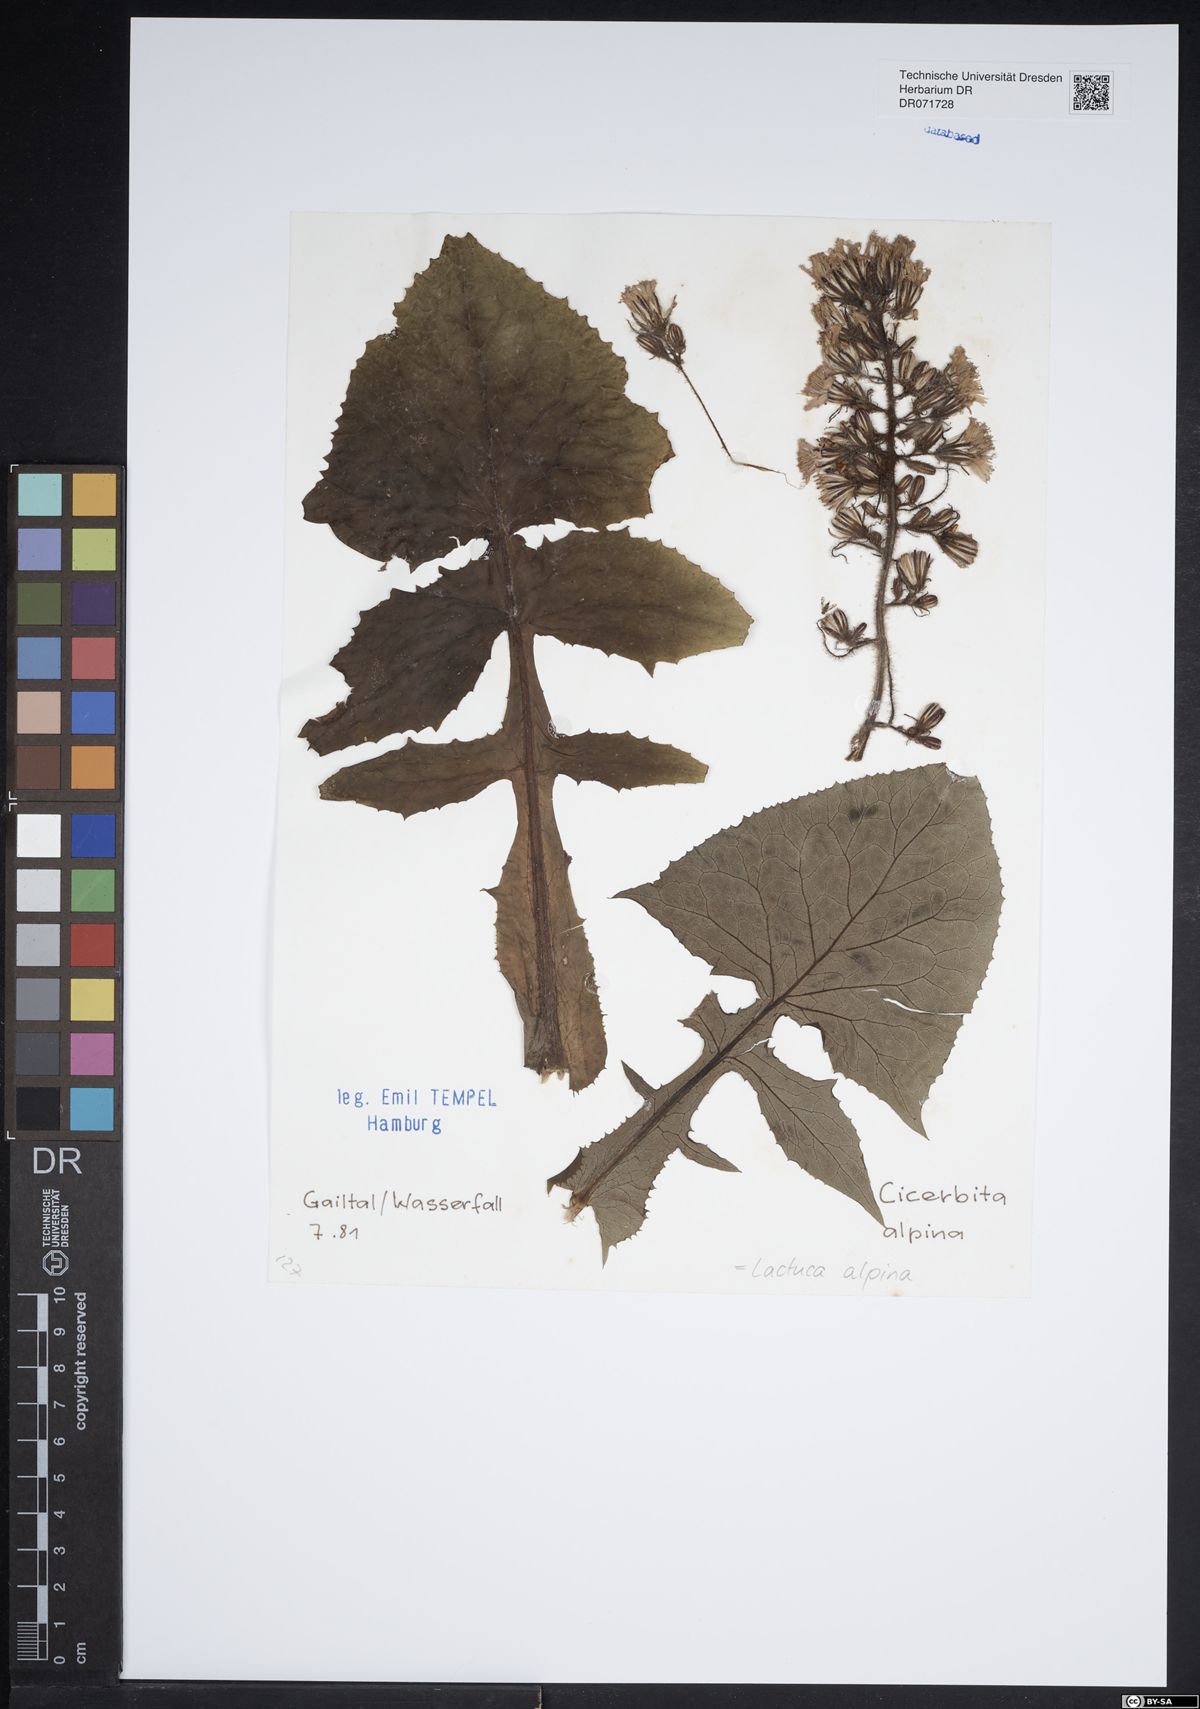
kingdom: Plantae
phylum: Tracheophyta
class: Magnoliopsida
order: Asterales
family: Asteraceae
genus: Lactuca
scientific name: Lactuca alpina
